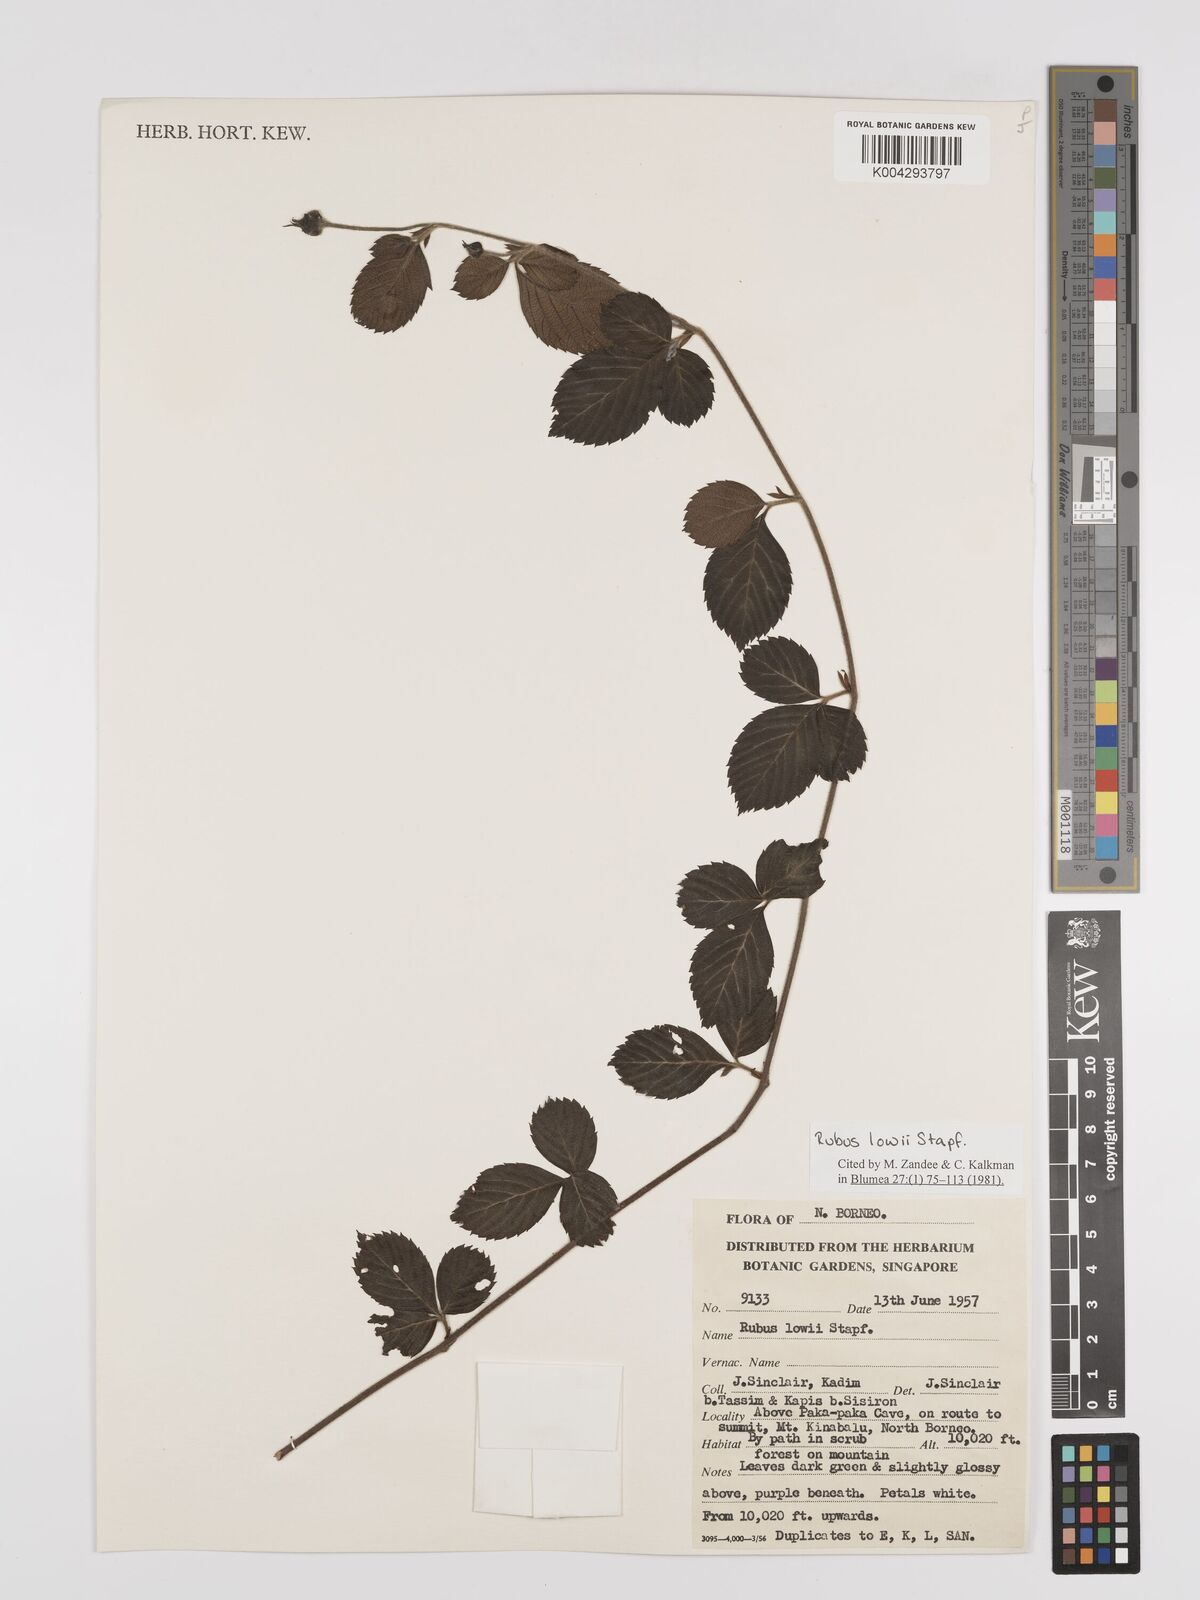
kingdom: Plantae
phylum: Tracheophyta
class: Magnoliopsida
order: Rosales
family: Rosaceae
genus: Rubus
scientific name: Rubus lowii
